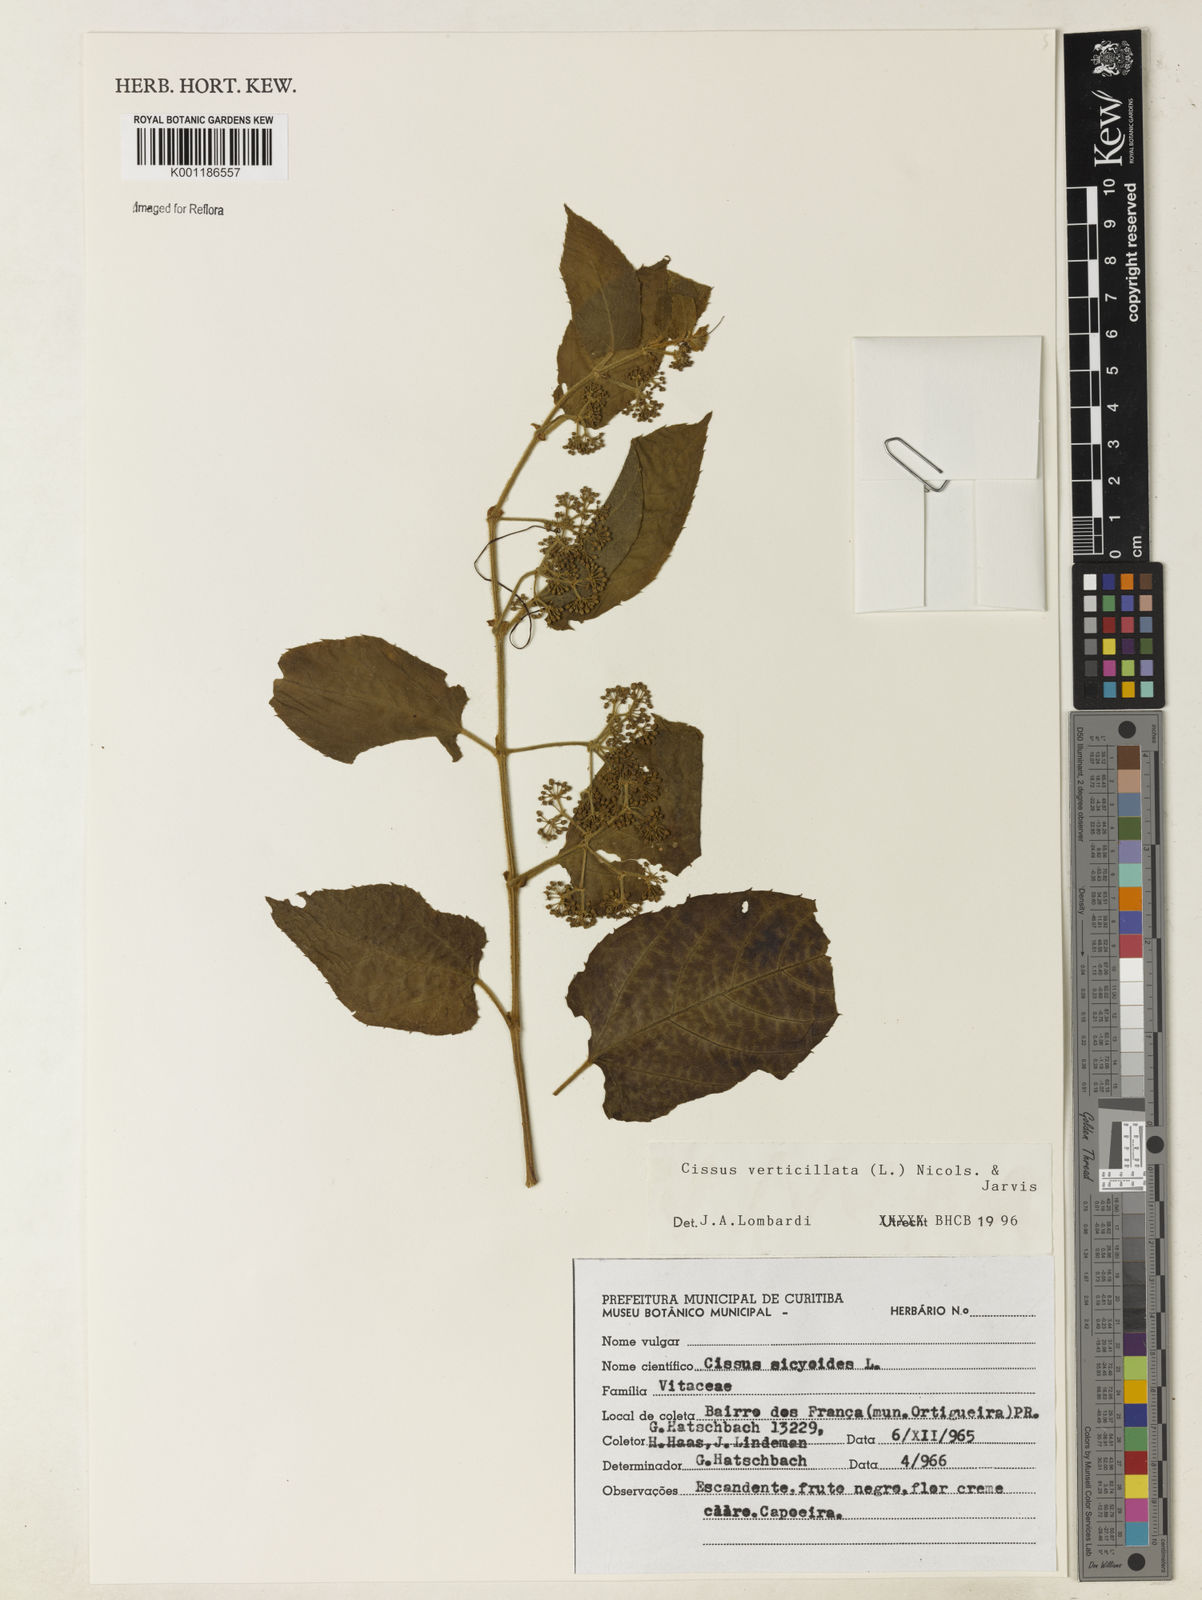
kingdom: Plantae
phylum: Tracheophyta
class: Magnoliopsida
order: Vitales
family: Vitaceae
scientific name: Vitaceae
